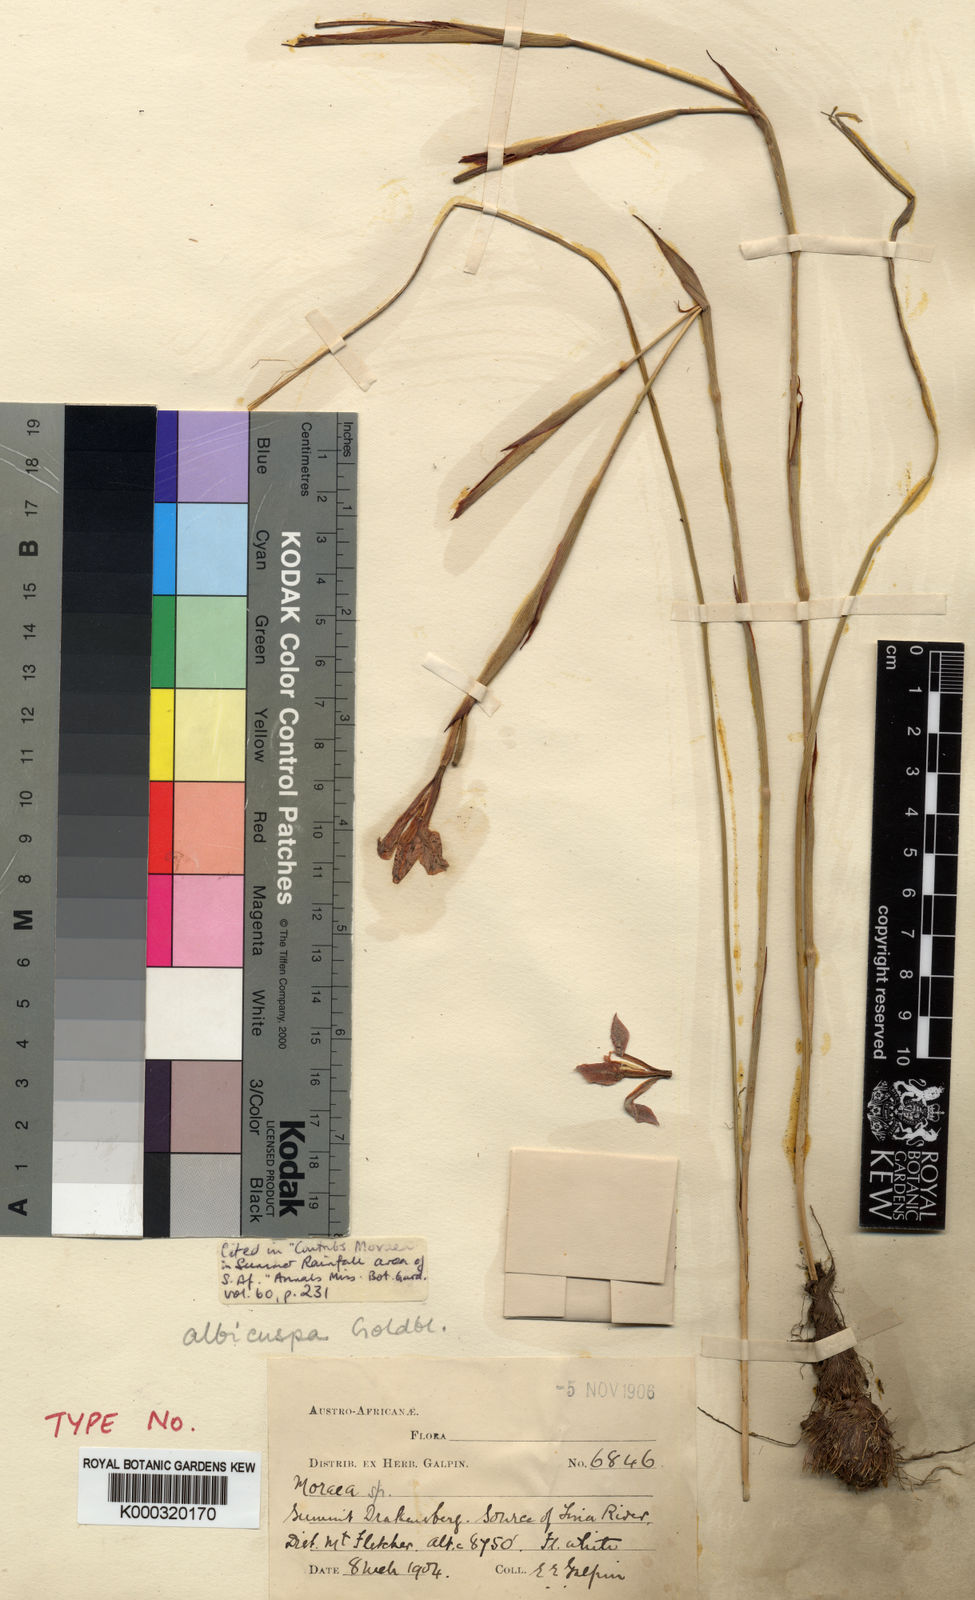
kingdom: Plantae
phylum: Tracheophyta
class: Liliopsida
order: Asparagales
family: Iridaceae
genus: Moraea
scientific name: Moraea albicuspa
